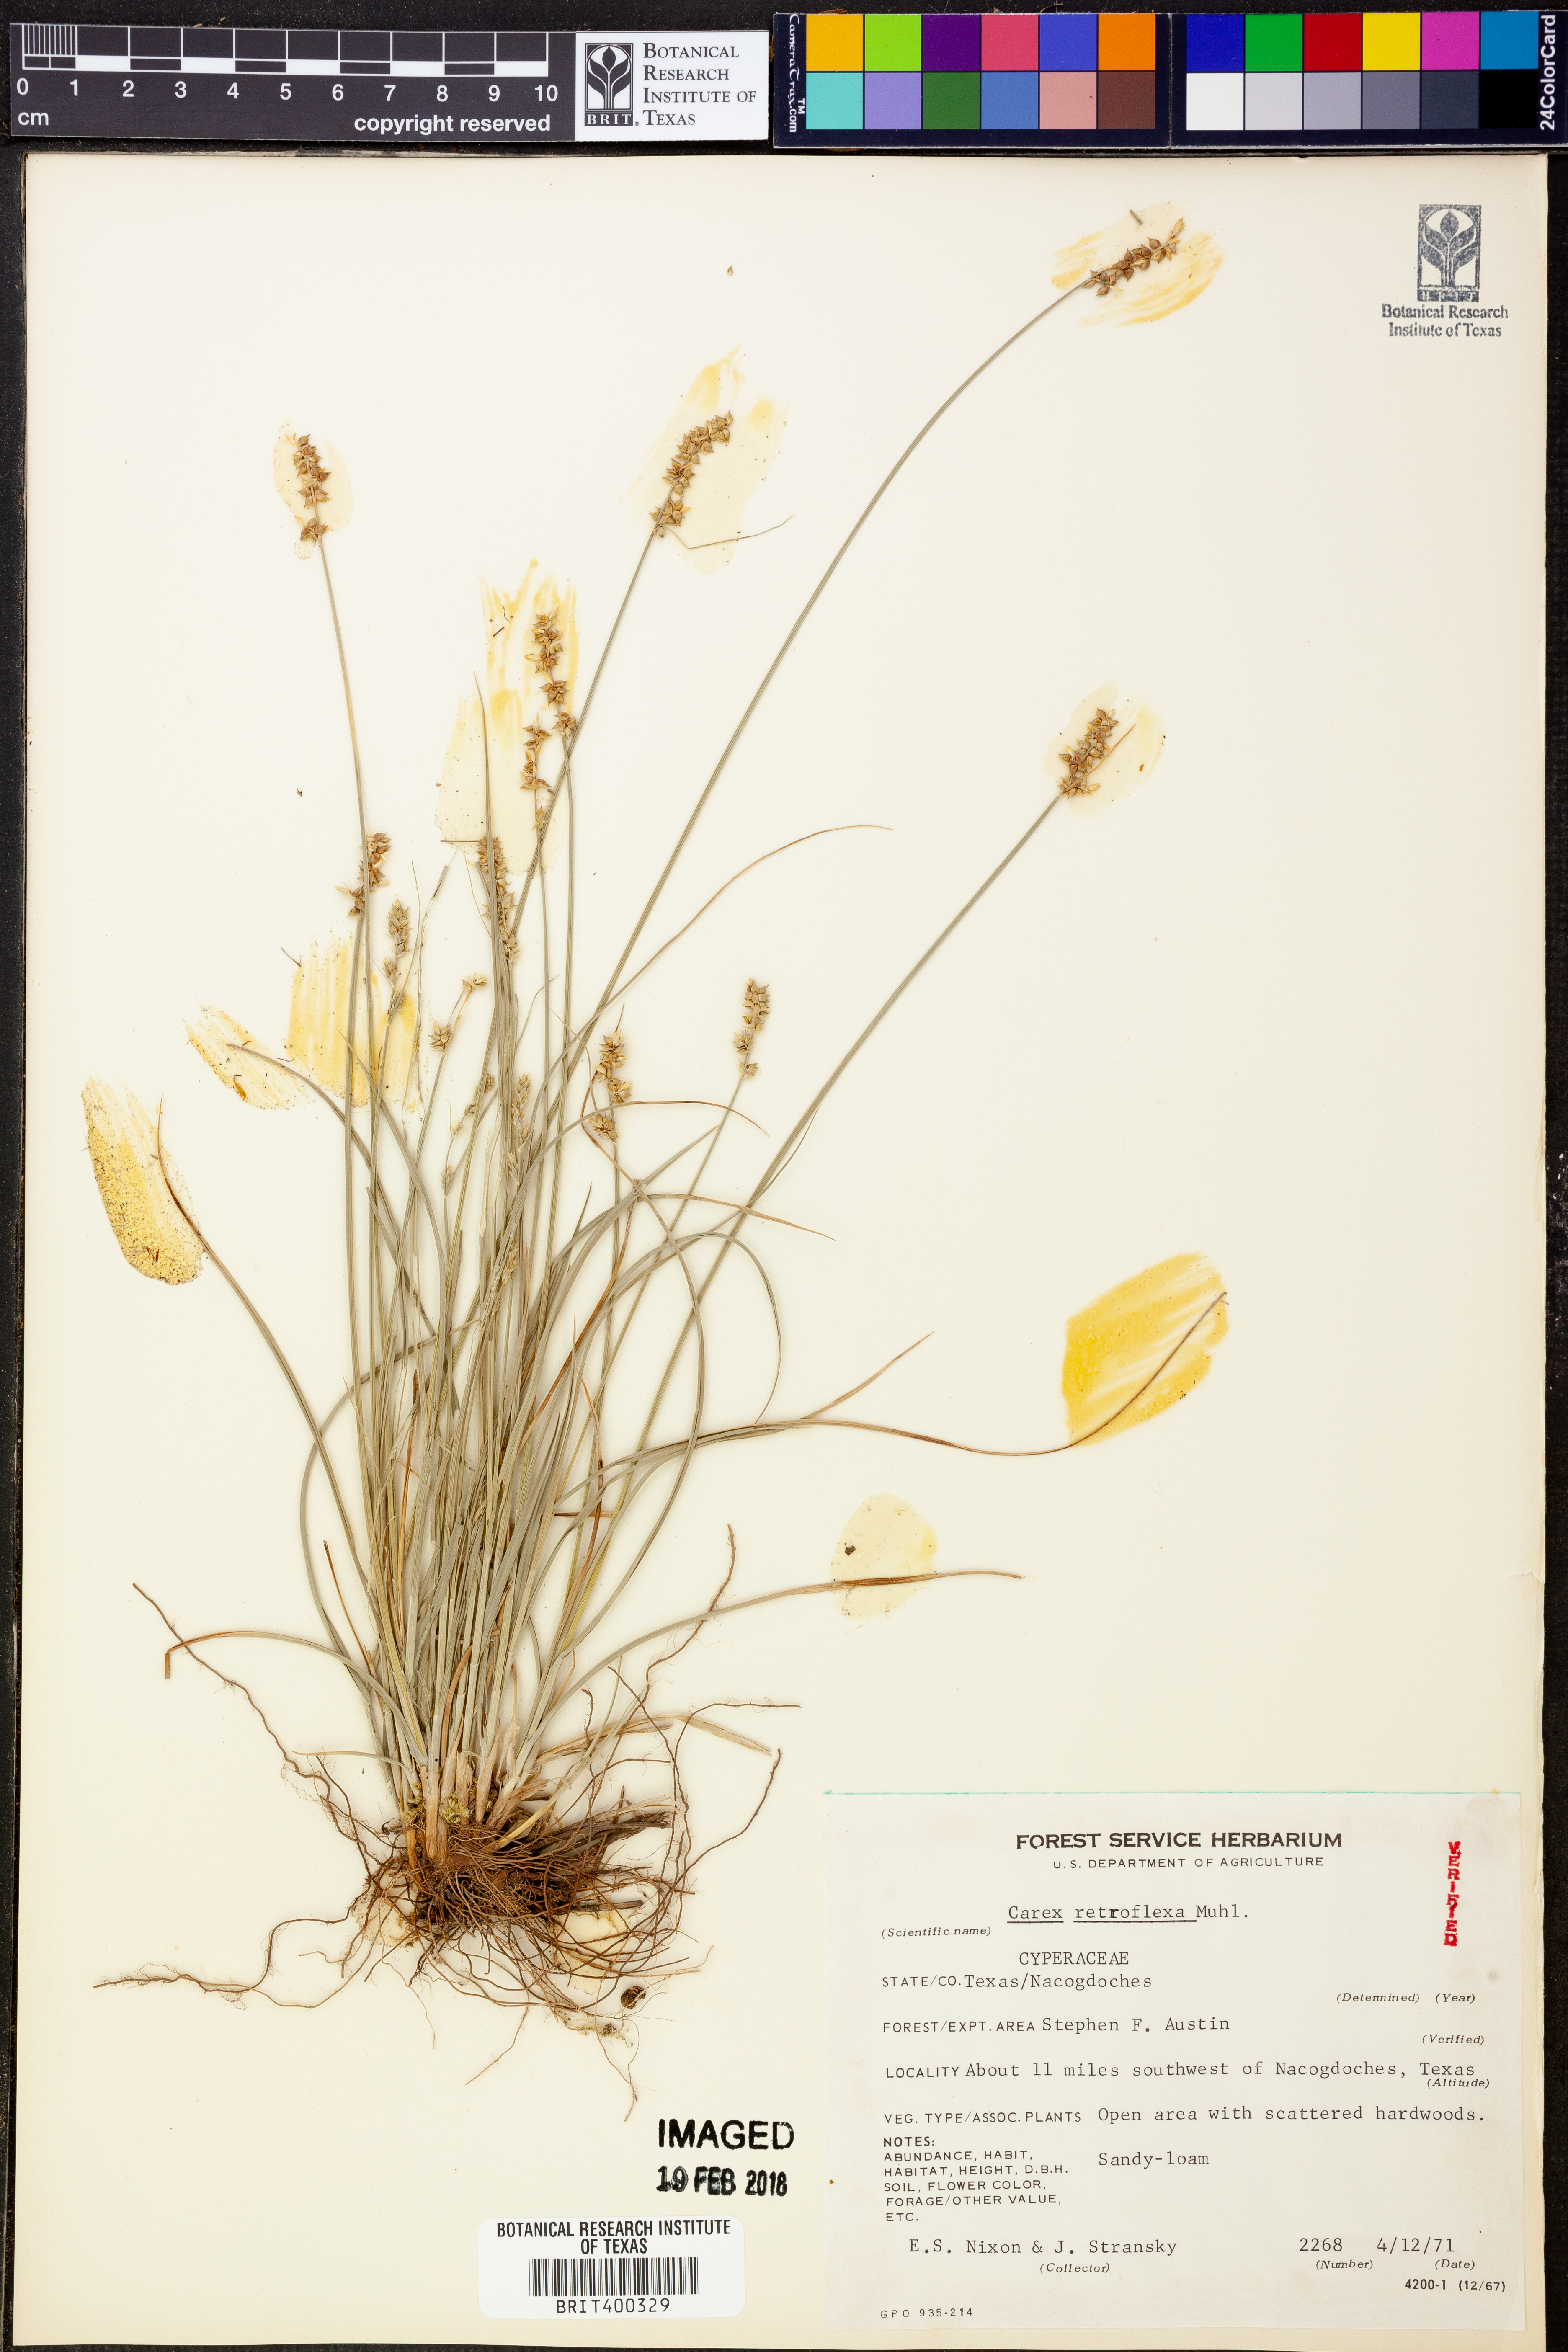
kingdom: Plantae
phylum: Tracheophyta
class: Liliopsida
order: Poales
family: Cyperaceae
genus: Carex
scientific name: Carex retroflexa
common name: Reflexed sedge
